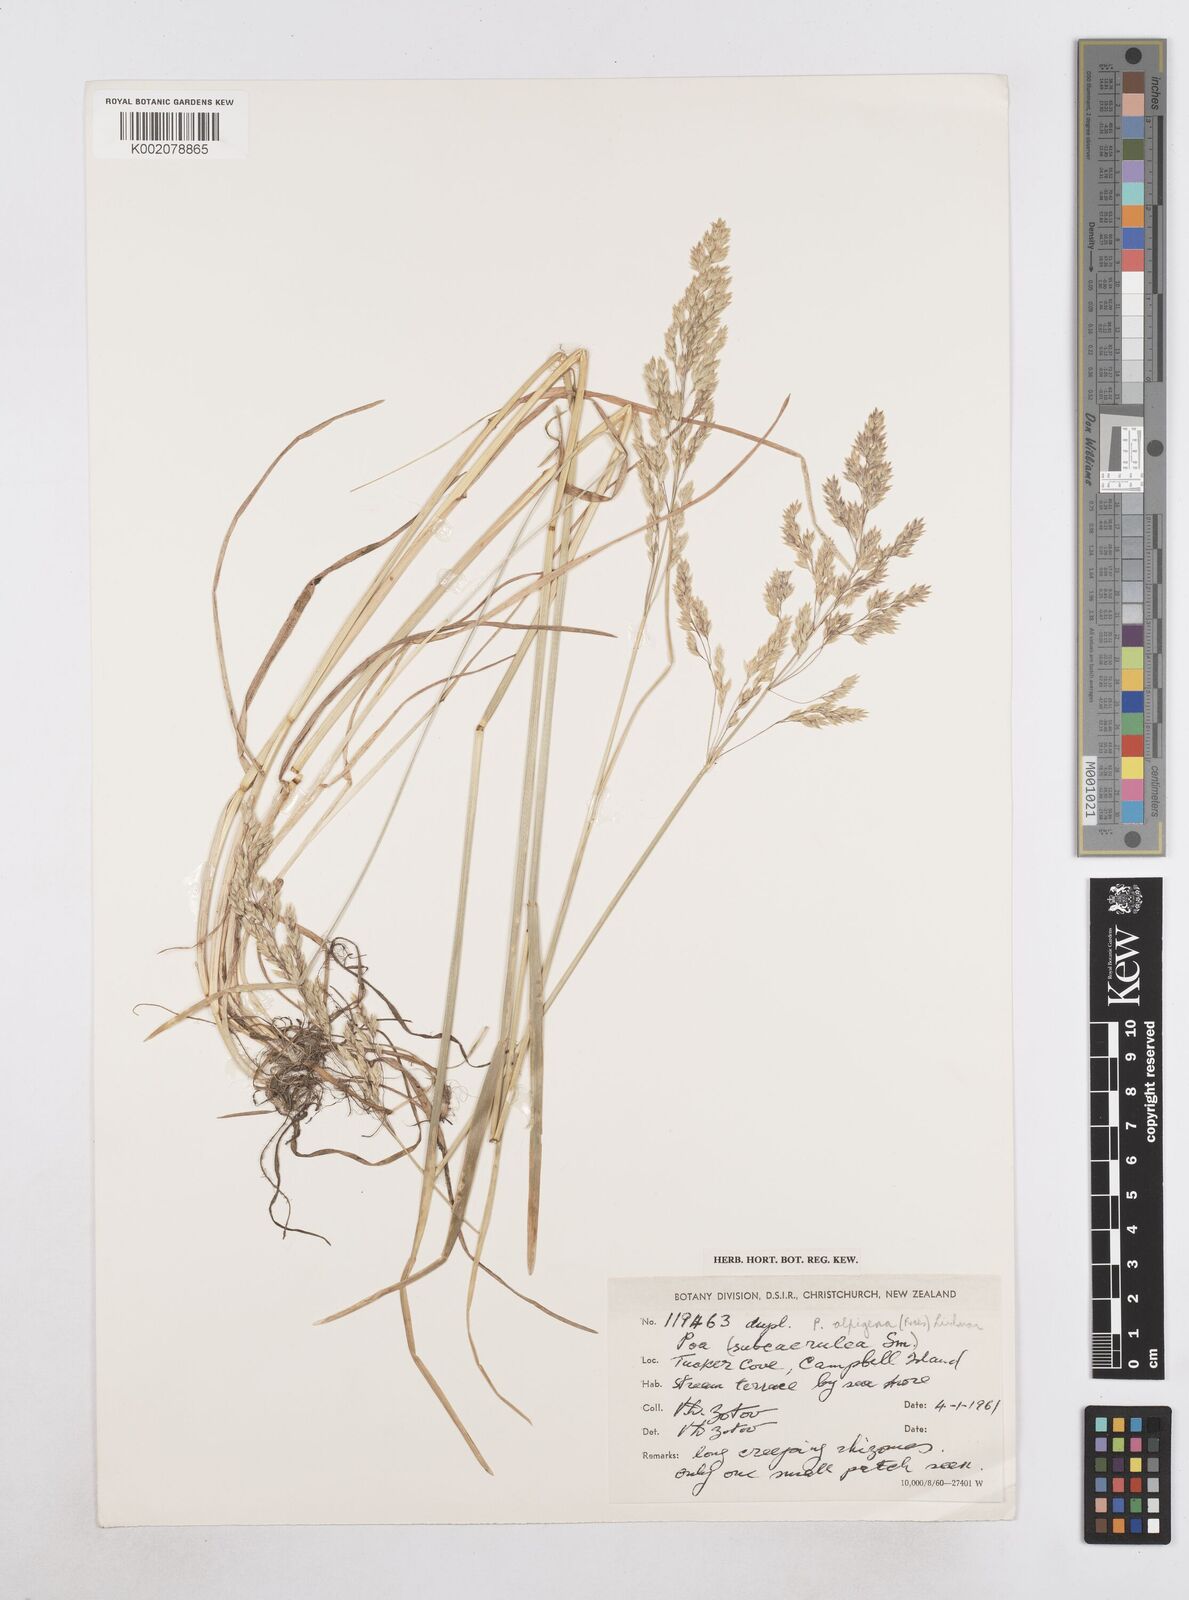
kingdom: Plantae
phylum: Tracheophyta
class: Liliopsida
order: Poales
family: Poaceae
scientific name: Poaceae
